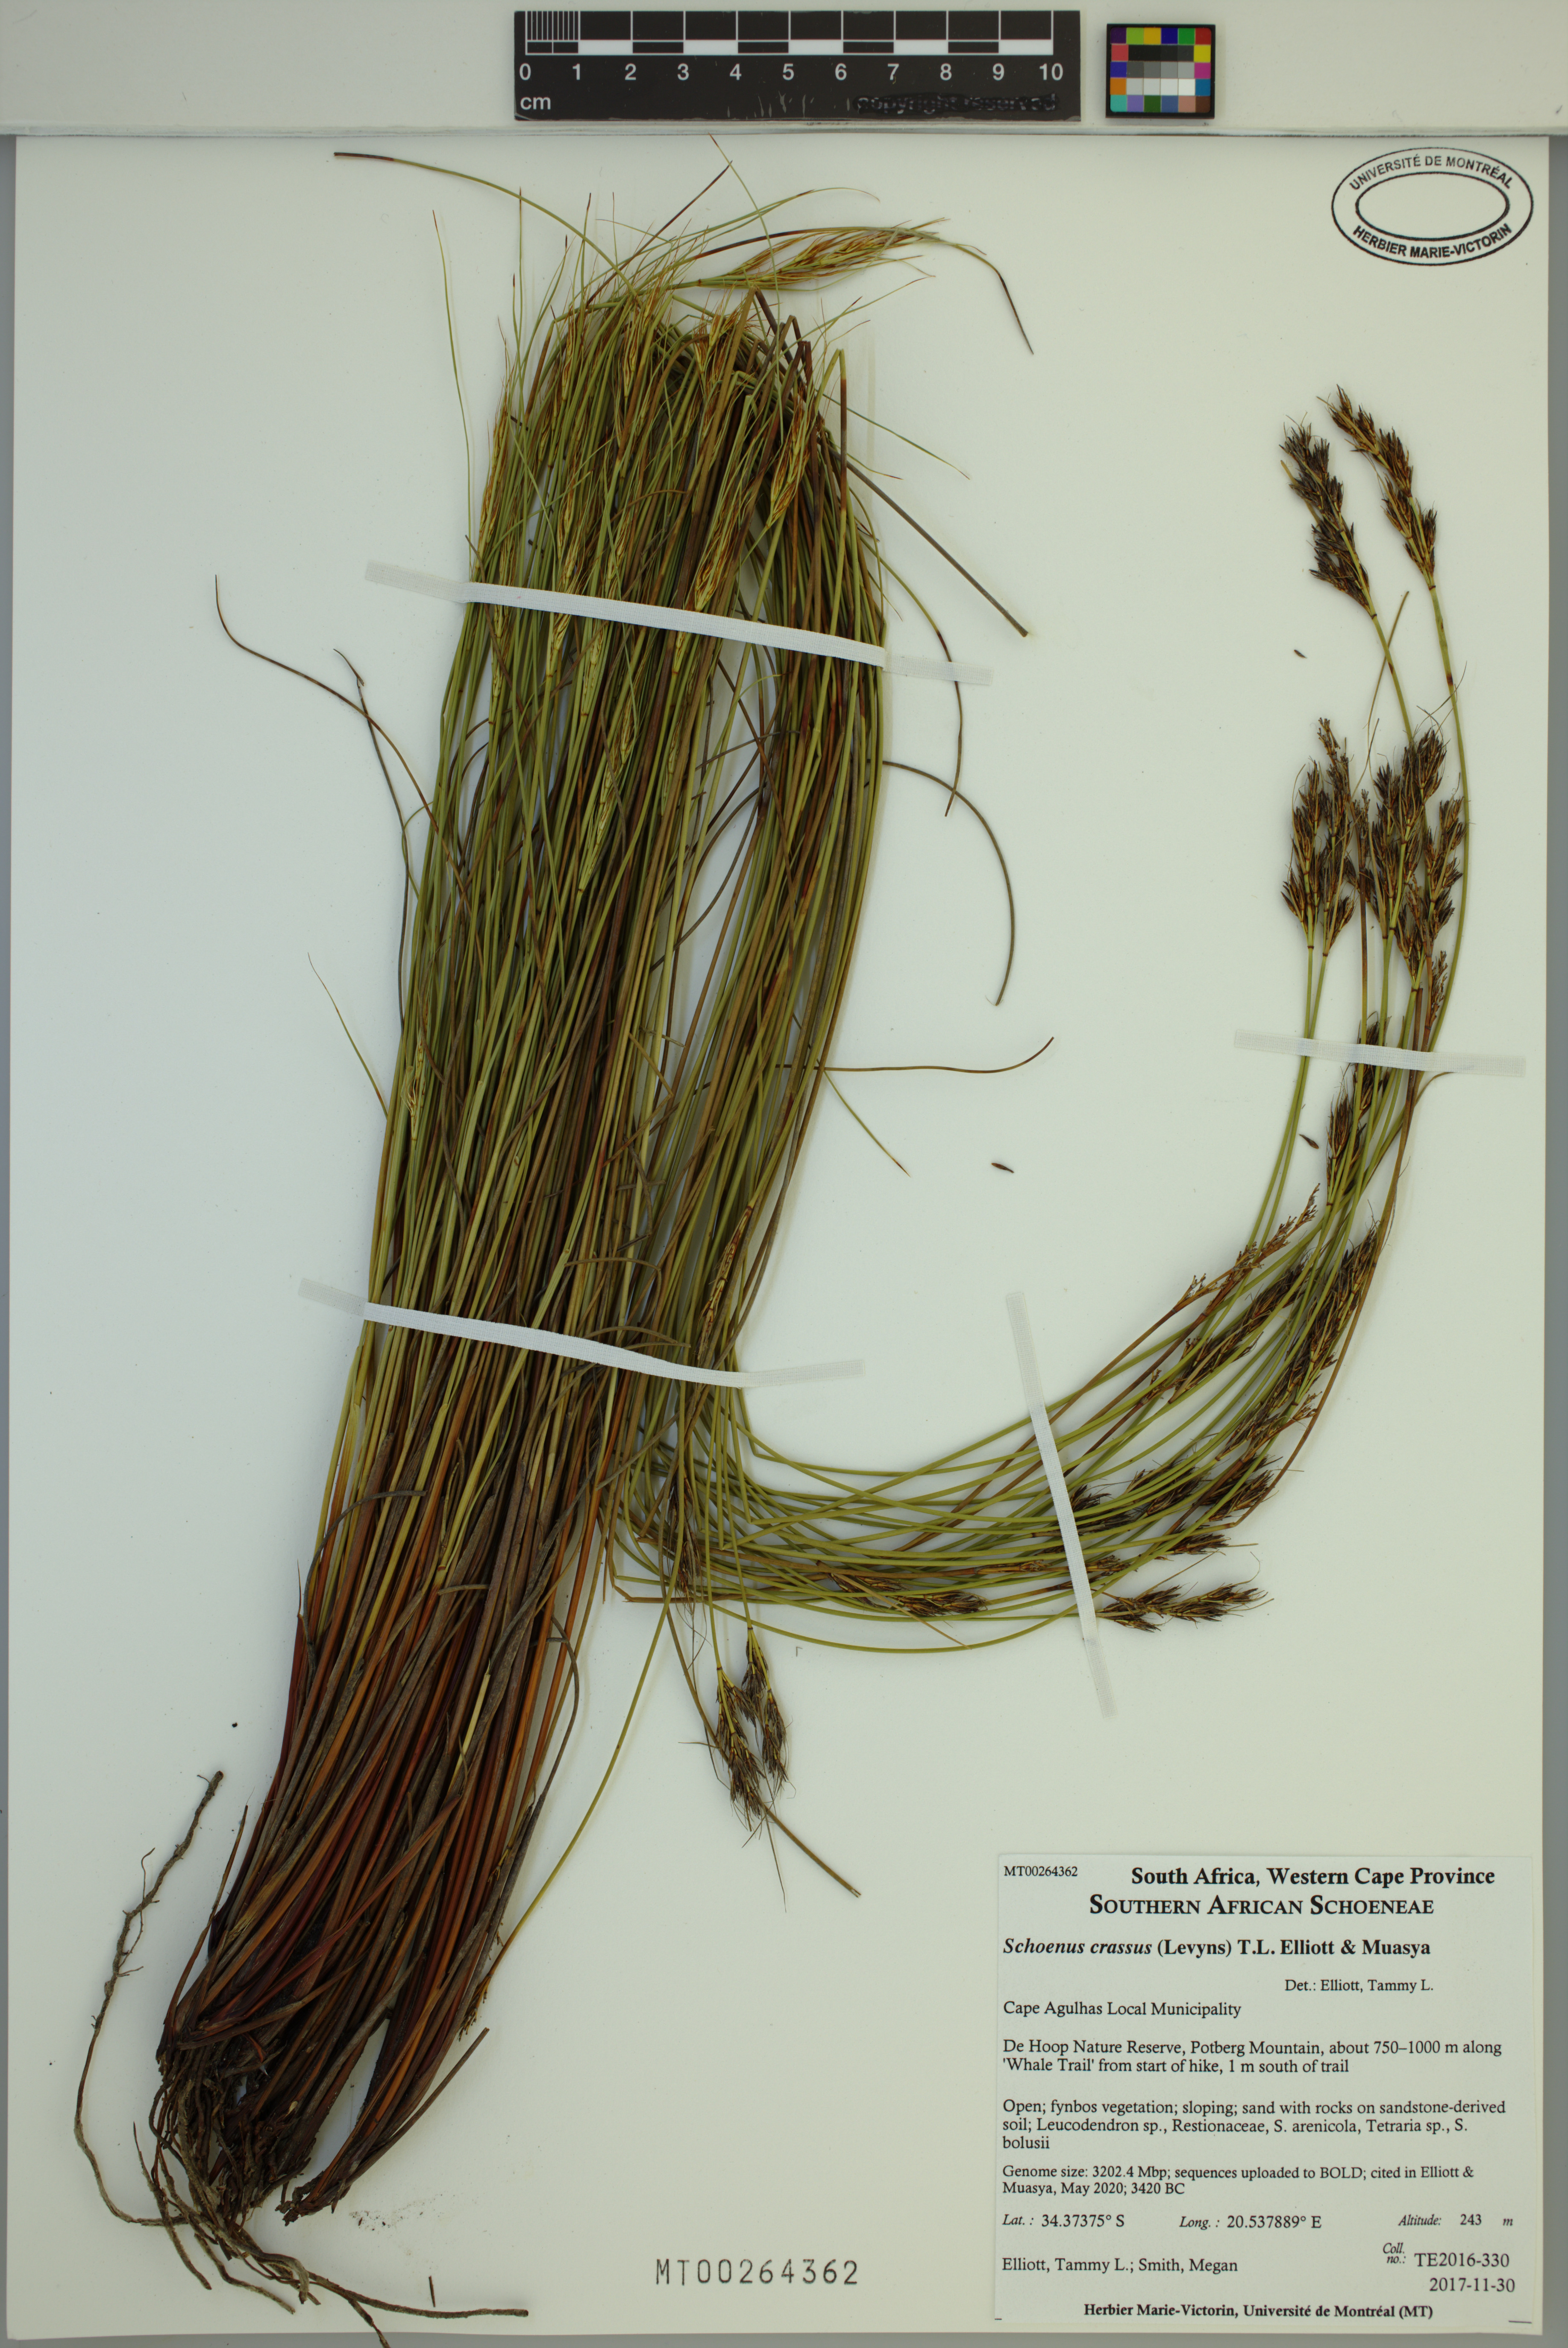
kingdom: Plantae
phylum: Tracheophyta
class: Liliopsida
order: Poales
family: Cyperaceae
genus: Schoenus
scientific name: Schoenus crassus
